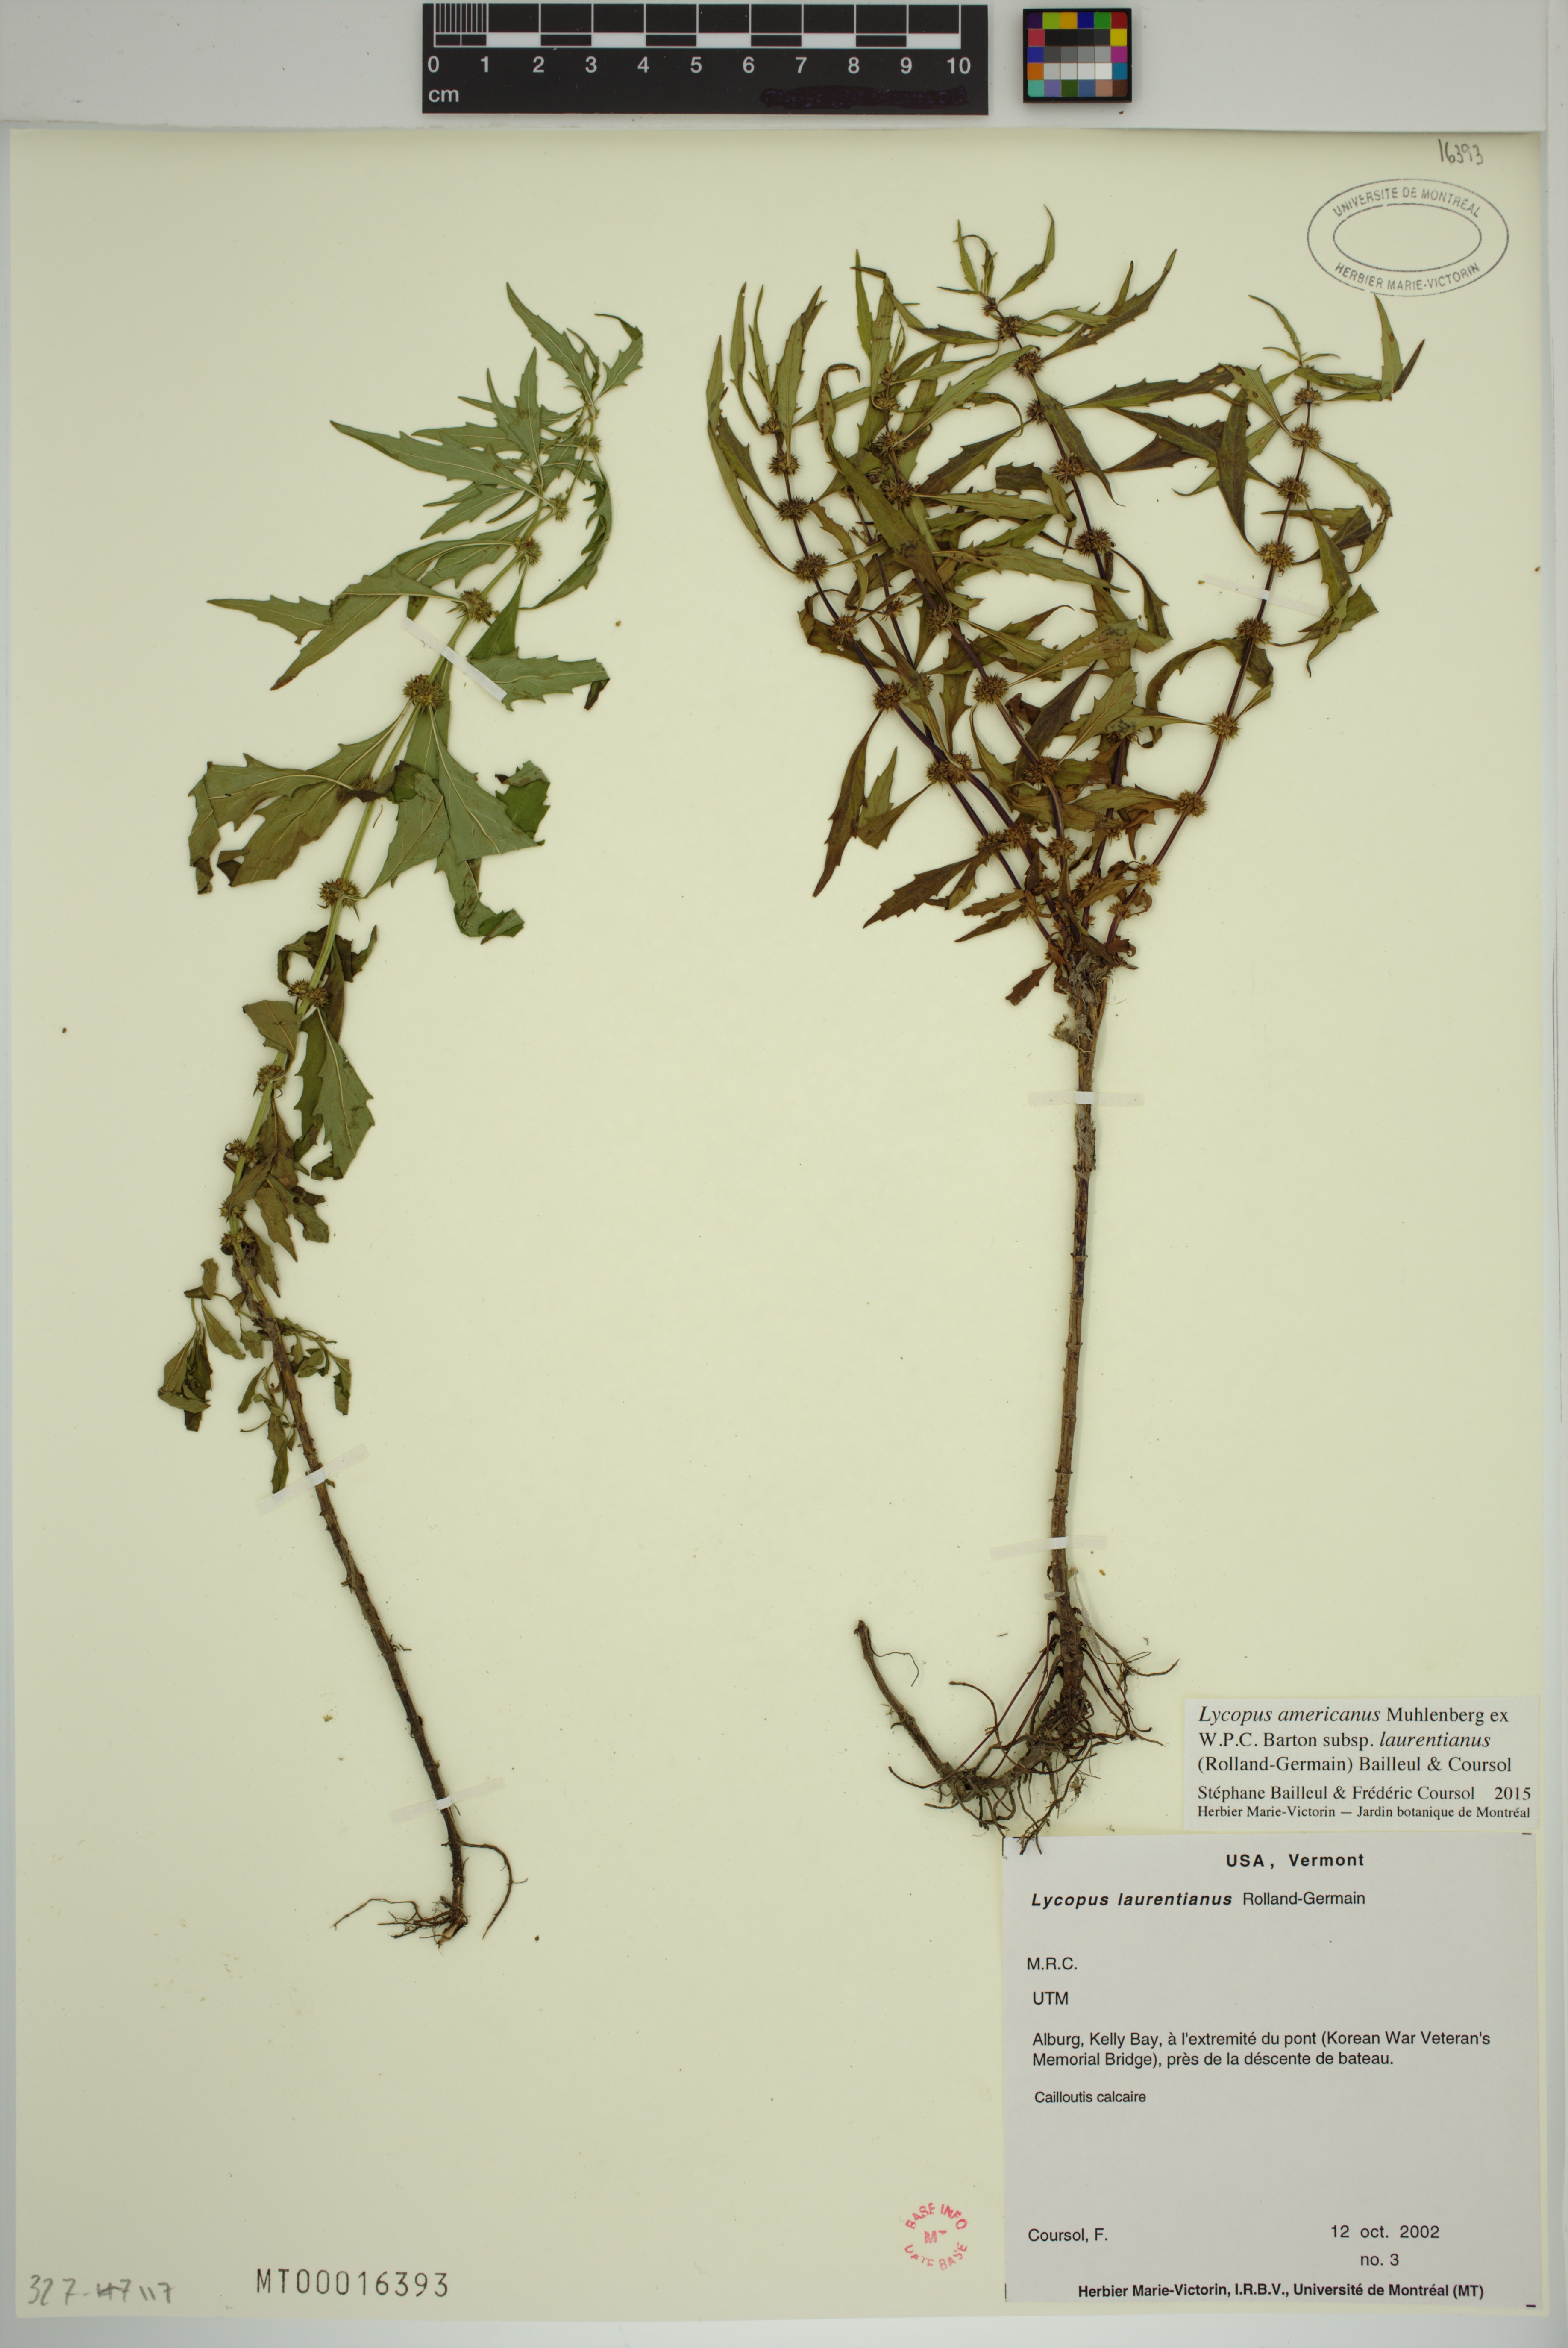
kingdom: Plantae
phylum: Tracheophyta
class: Magnoliopsida
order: Lamiales
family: Lamiaceae
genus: Lycopus
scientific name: Lycopus americanus
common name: American bugleweed
